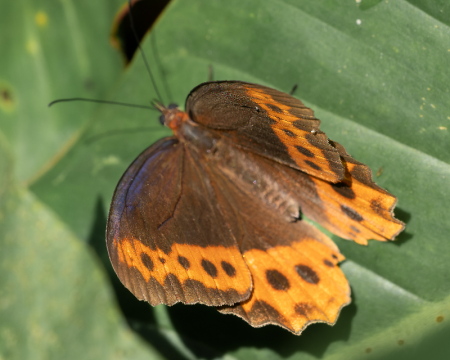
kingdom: Animalia
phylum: Arthropoda
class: Insecta
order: Lepidoptera
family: Nymphalidae
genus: Oxeoschistus
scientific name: Oxeoschistus puerta
